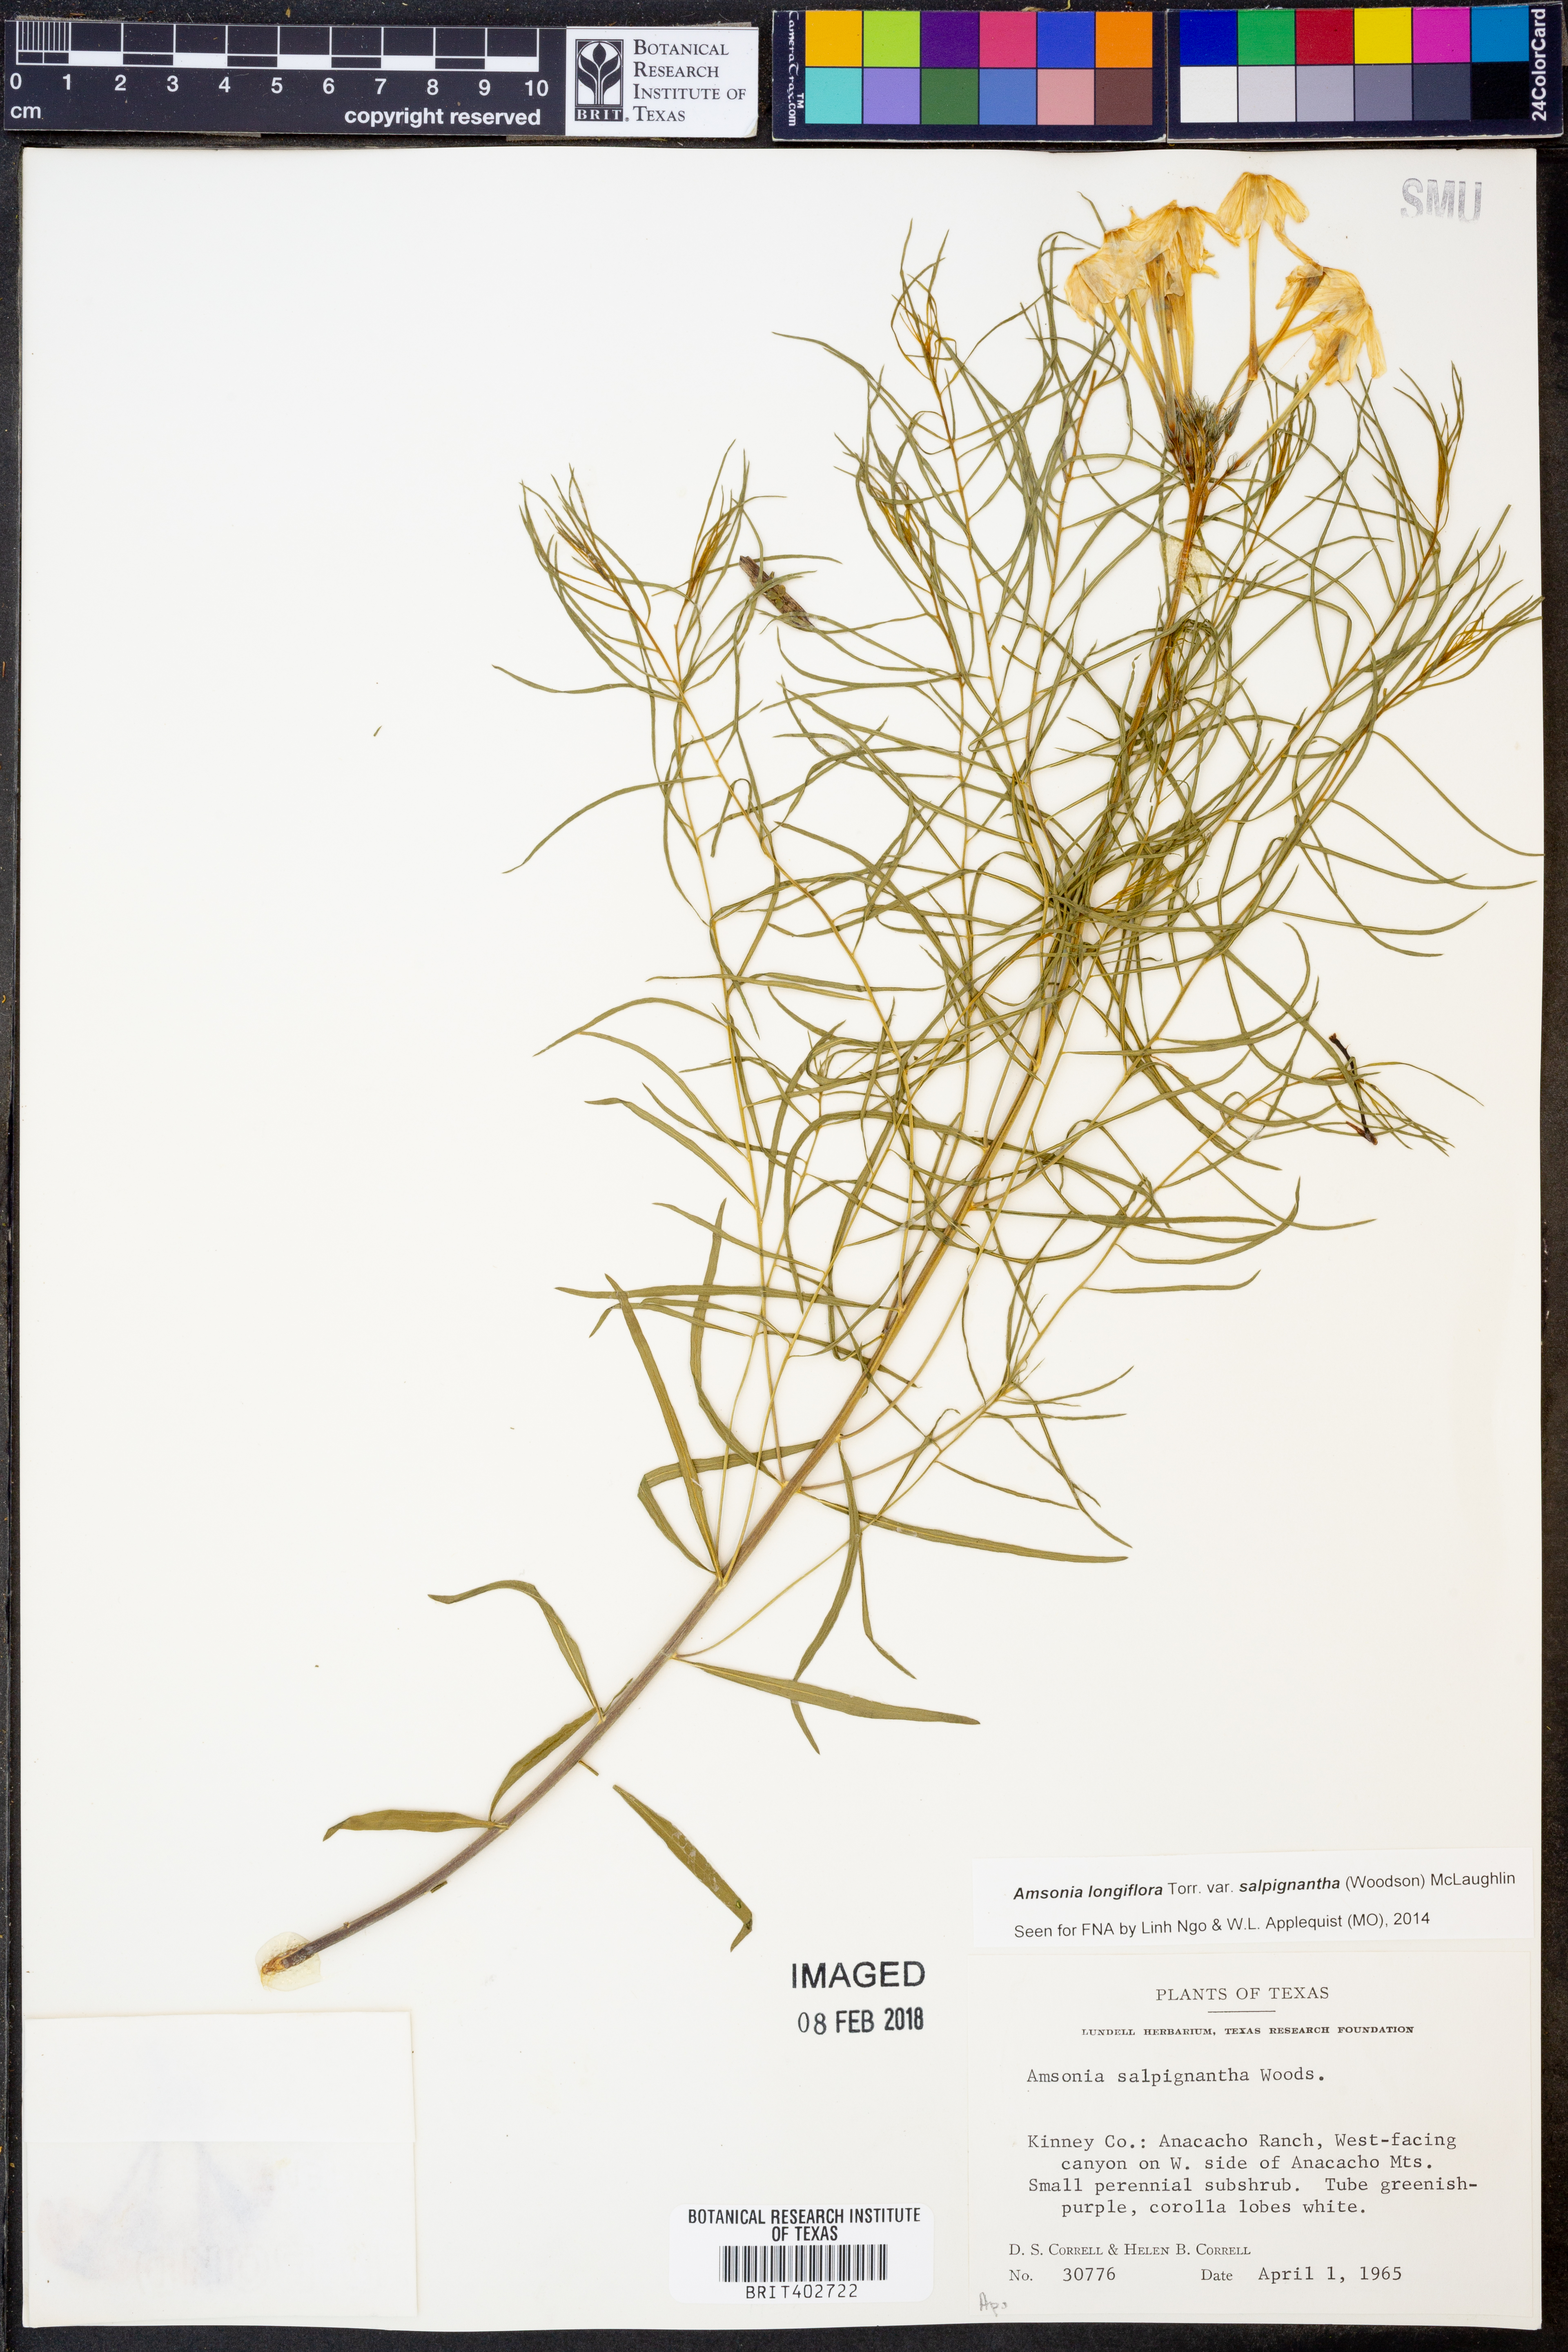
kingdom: Plantae
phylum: Tracheophyta
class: Magnoliopsida
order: Gentianales
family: Apocynaceae
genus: Amsonia
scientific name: Amsonia longiflora
